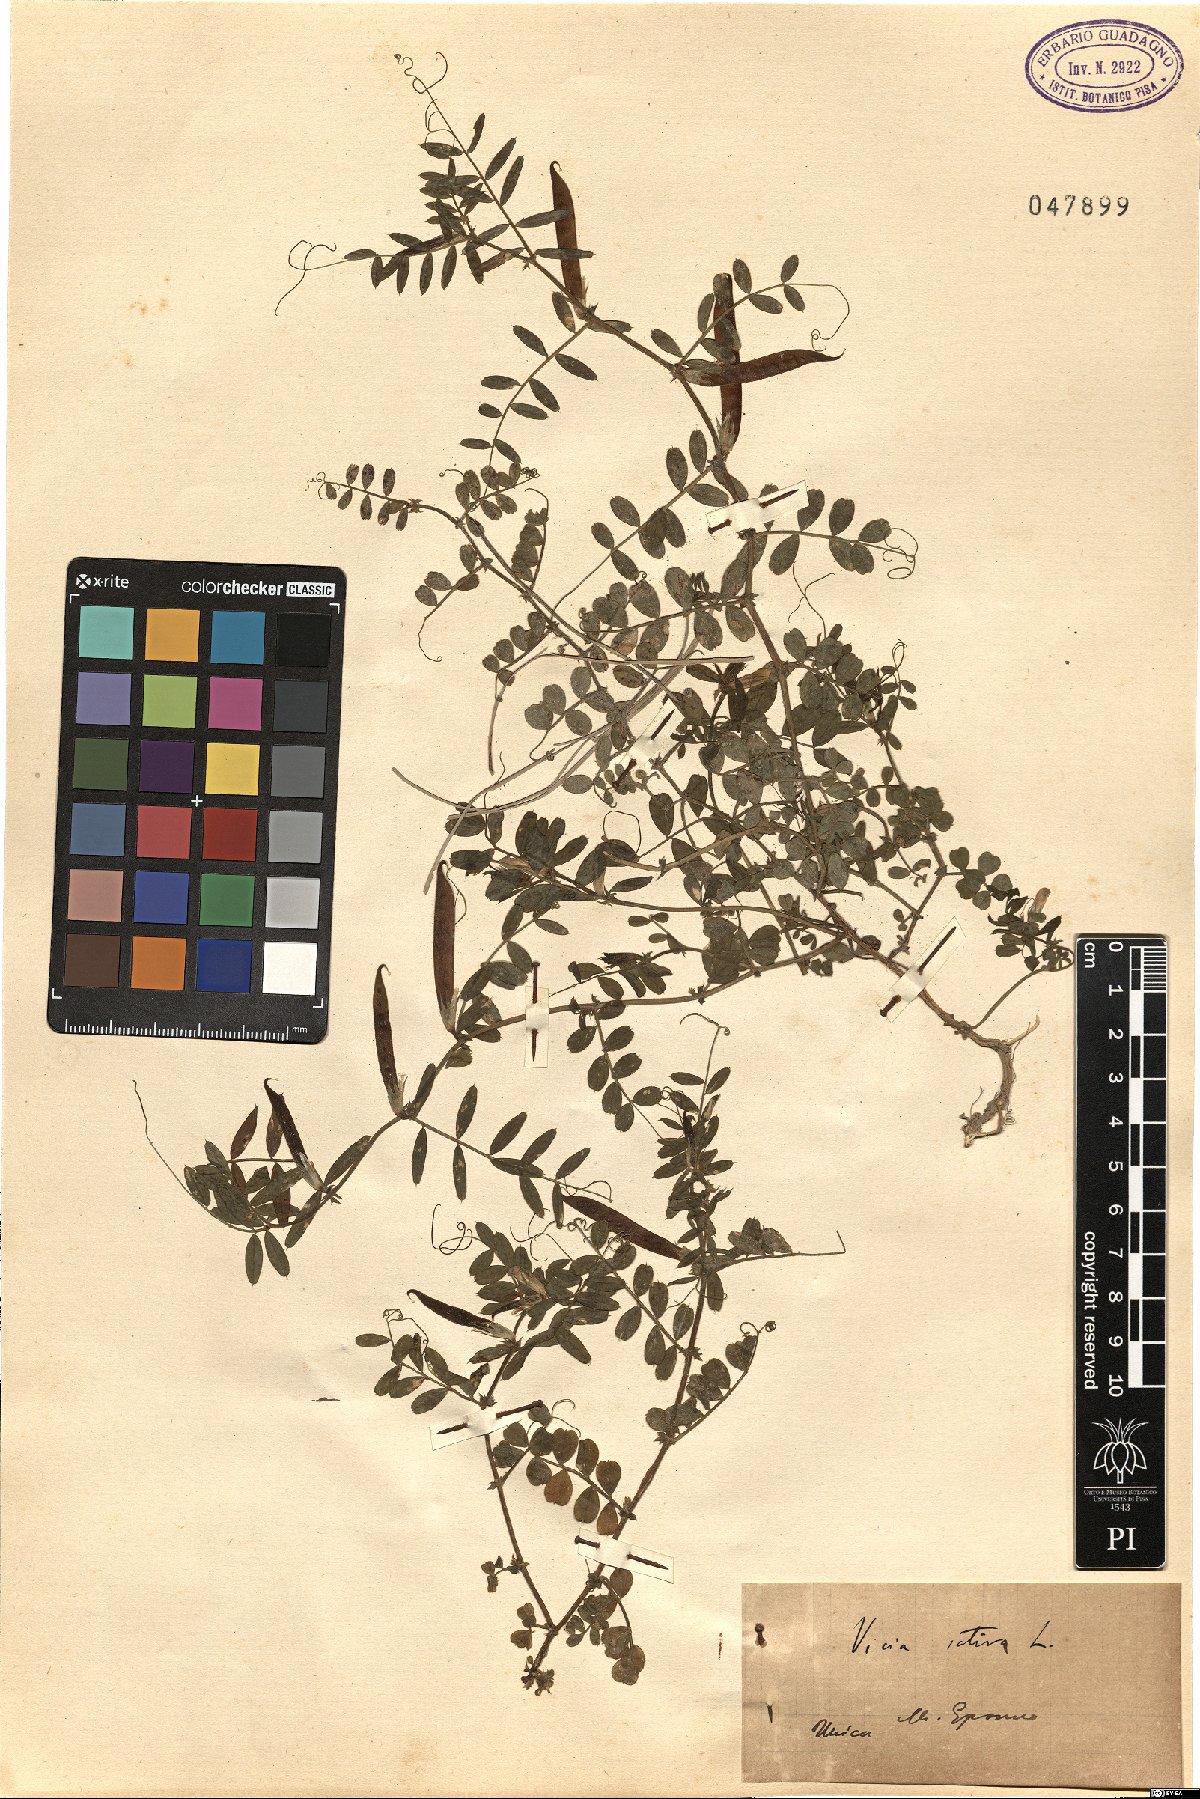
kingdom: Plantae
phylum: Tracheophyta
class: Magnoliopsida
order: Fabales
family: Fabaceae
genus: Vicia
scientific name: Vicia sativa
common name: Garden vetch
